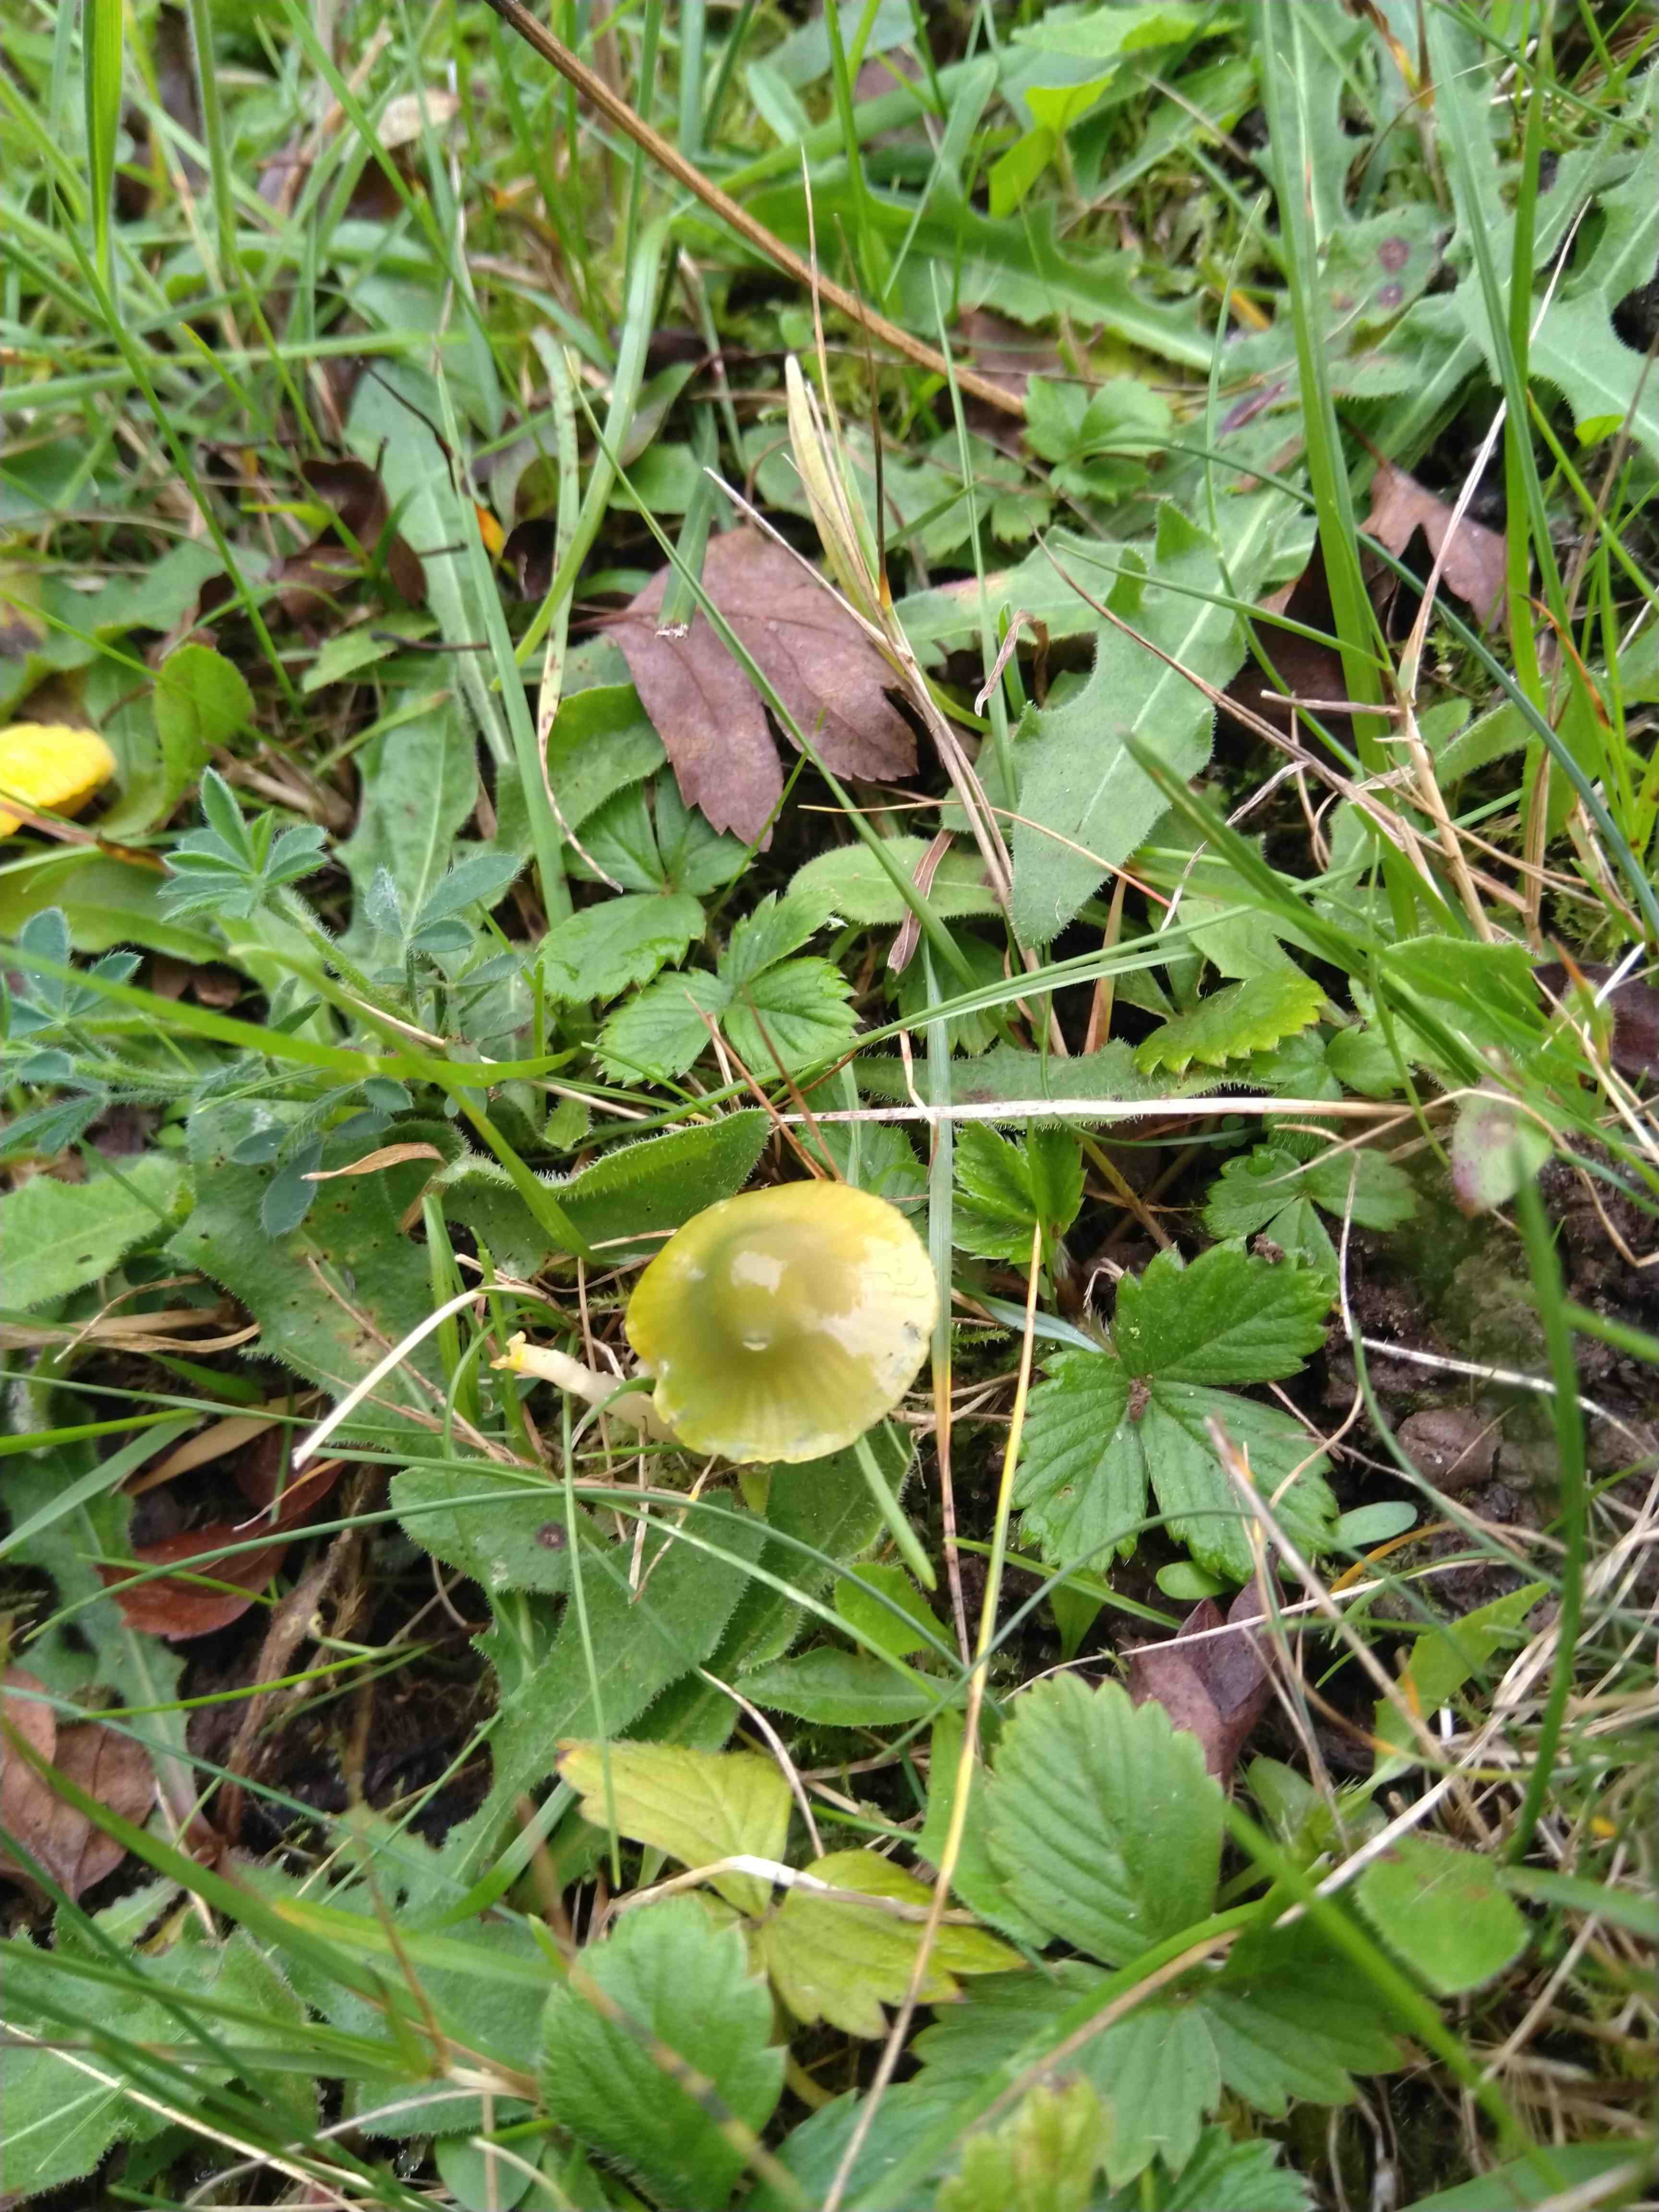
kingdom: Fungi
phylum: Basidiomycota
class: Agaricomycetes
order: Agaricales
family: Hygrophoraceae
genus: Gliophorus
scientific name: Gliophorus psittacinus
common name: papegøje-vokshat
